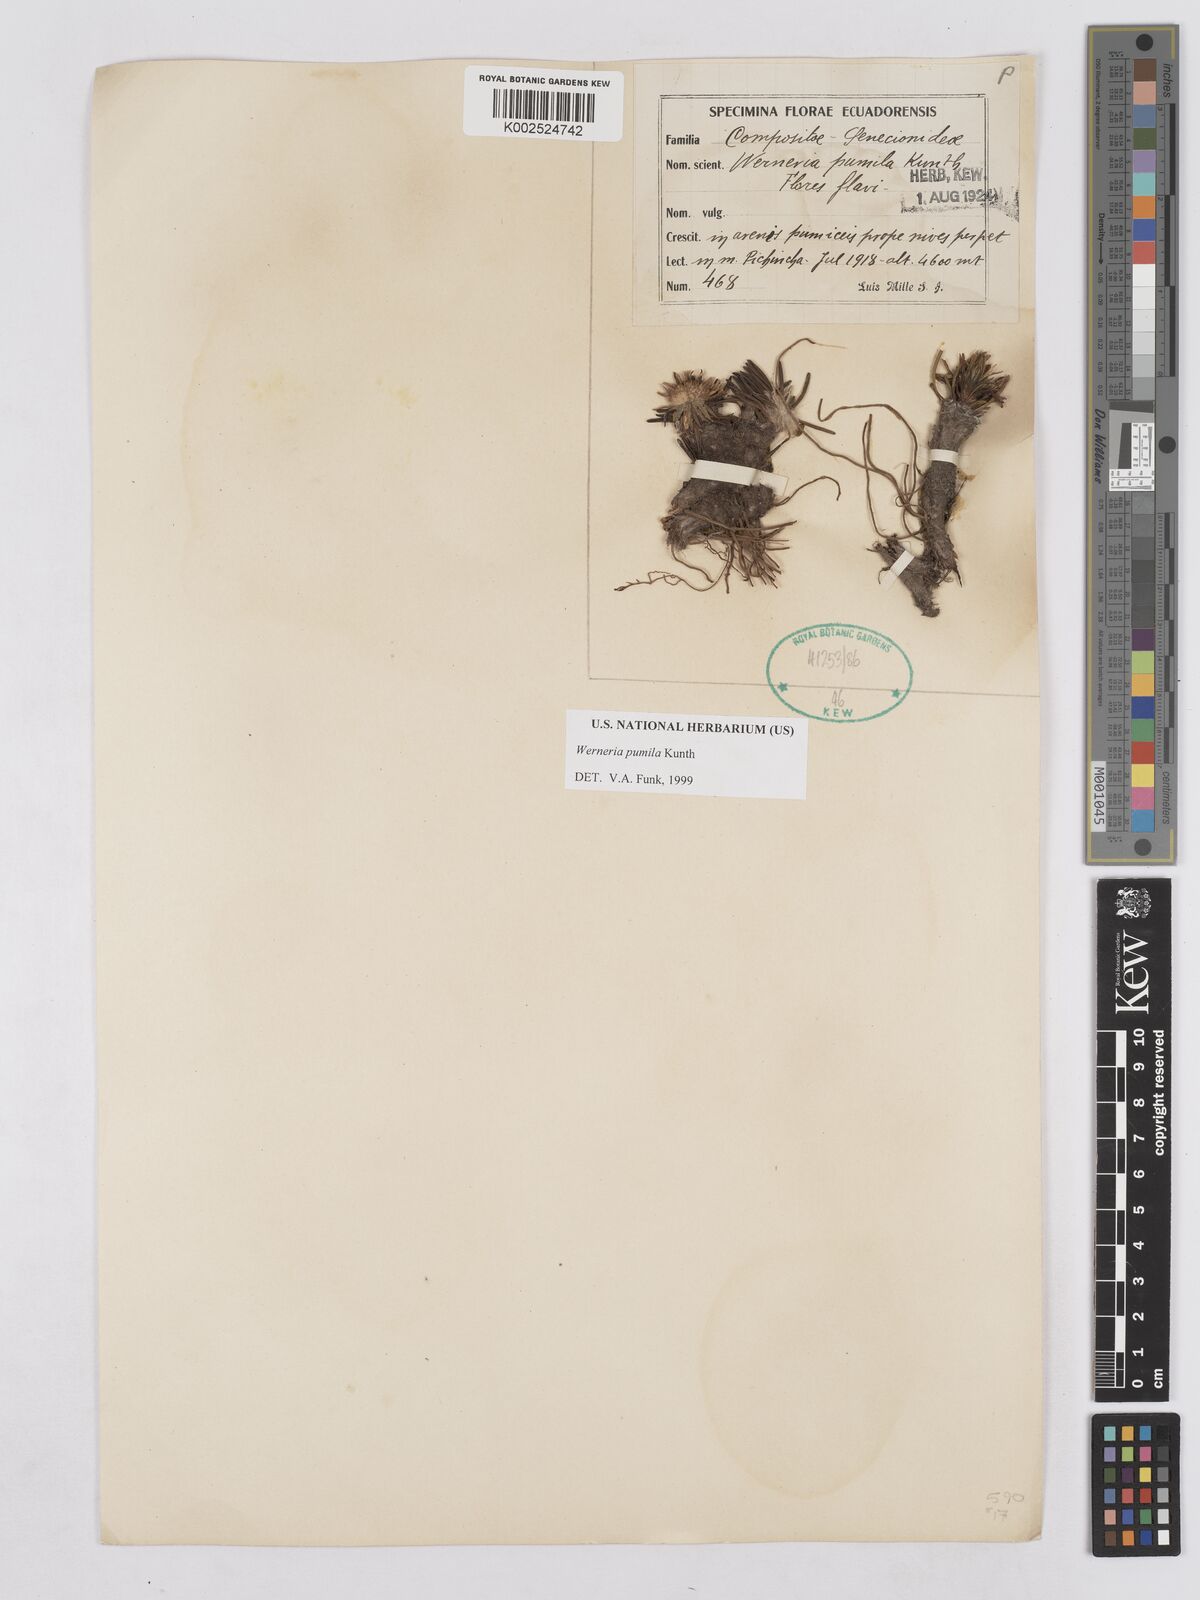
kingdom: Plantae
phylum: Tracheophyta
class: Magnoliopsida
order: Asterales
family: Asteraceae
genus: Rockhausenia
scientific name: Rockhausenia pumila
